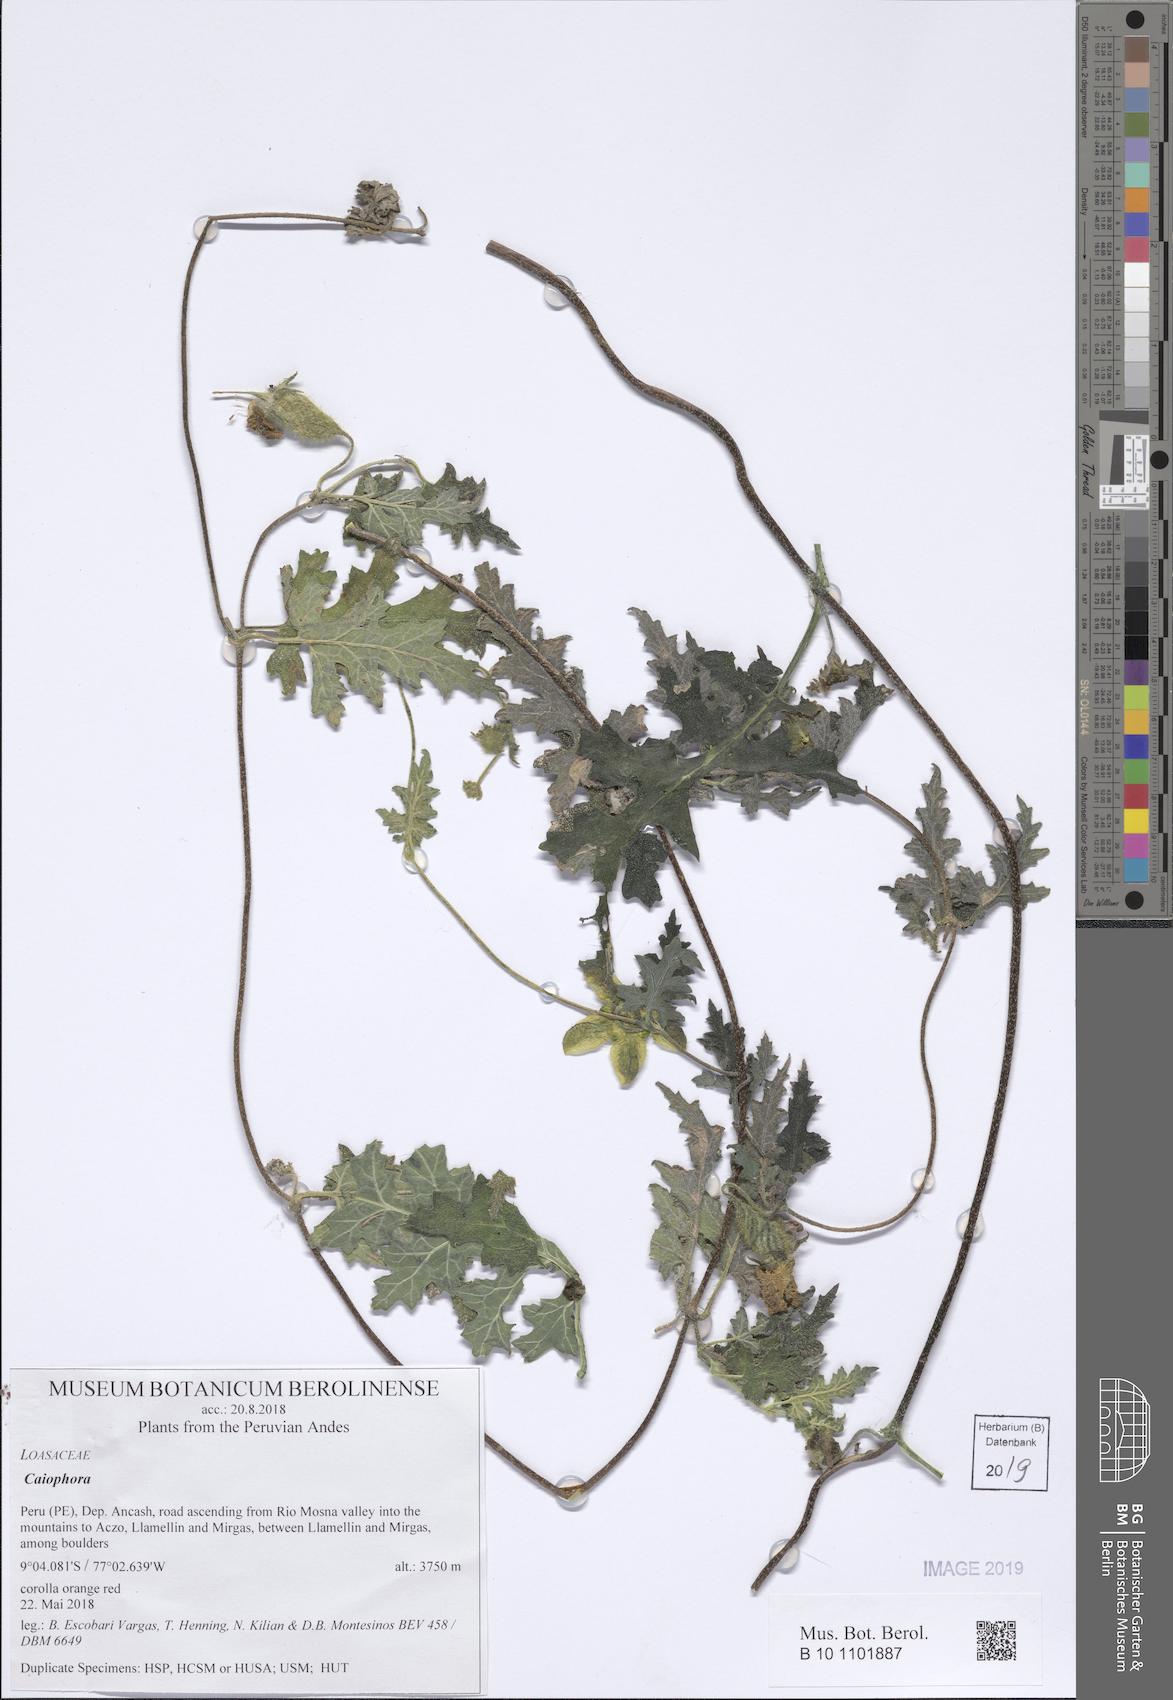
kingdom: Plantae
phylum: Tracheophyta
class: Magnoliopsida
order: Cornales
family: Loasaceae
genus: Caiophora
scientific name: Caiophora cirsiifolia
